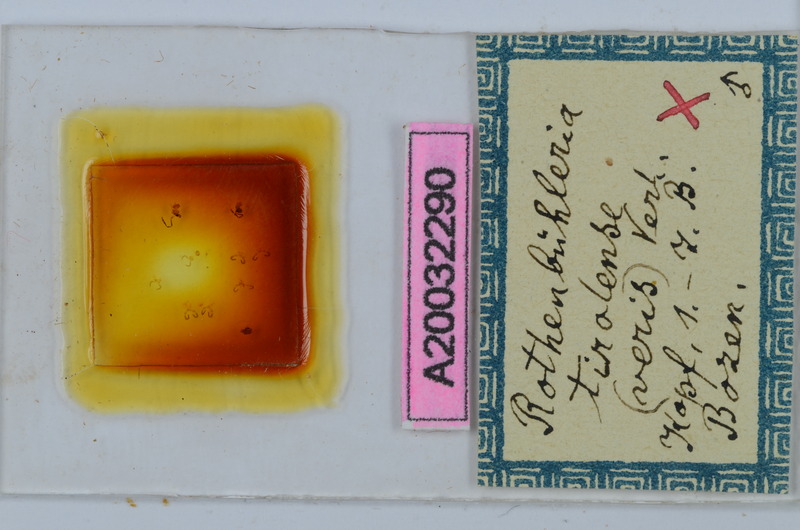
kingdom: Animalia
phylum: Arthropoda
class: Diplopoda
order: Chordeumatida
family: Craspedosomatidae
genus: Rothenbuehleria
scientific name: Rothenbuehleria tirolense
